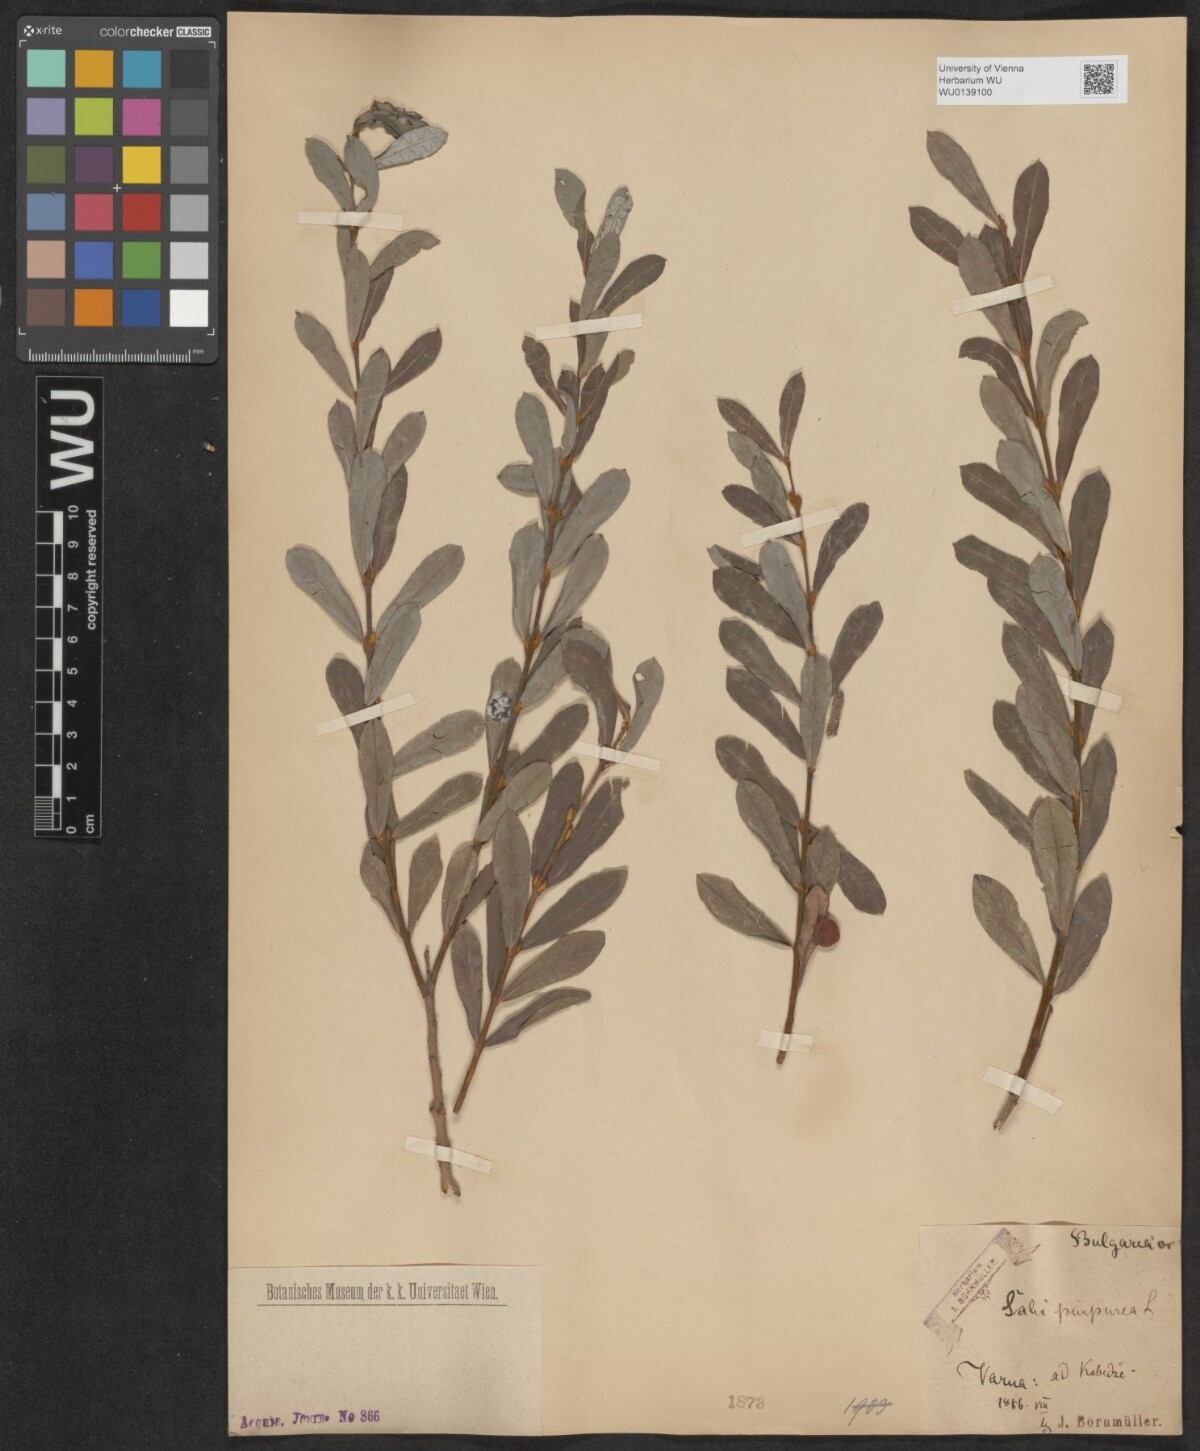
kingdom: Plantae
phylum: Tracheophyta
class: Magnoliopsida
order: Malpighiales
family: Salicaceae
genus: Salix
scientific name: Salix purpurea
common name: Purple willow
